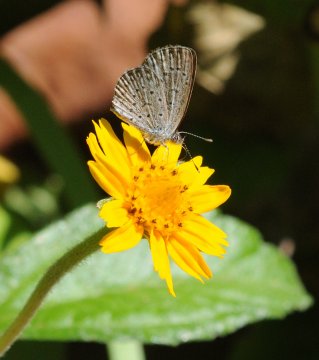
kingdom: Animalia
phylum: Arthropoda
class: Insecta
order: Lepidoptera
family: Lycaenidae
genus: Zizeeria
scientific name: Zizeeria knysna
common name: Dark Grass Blue
